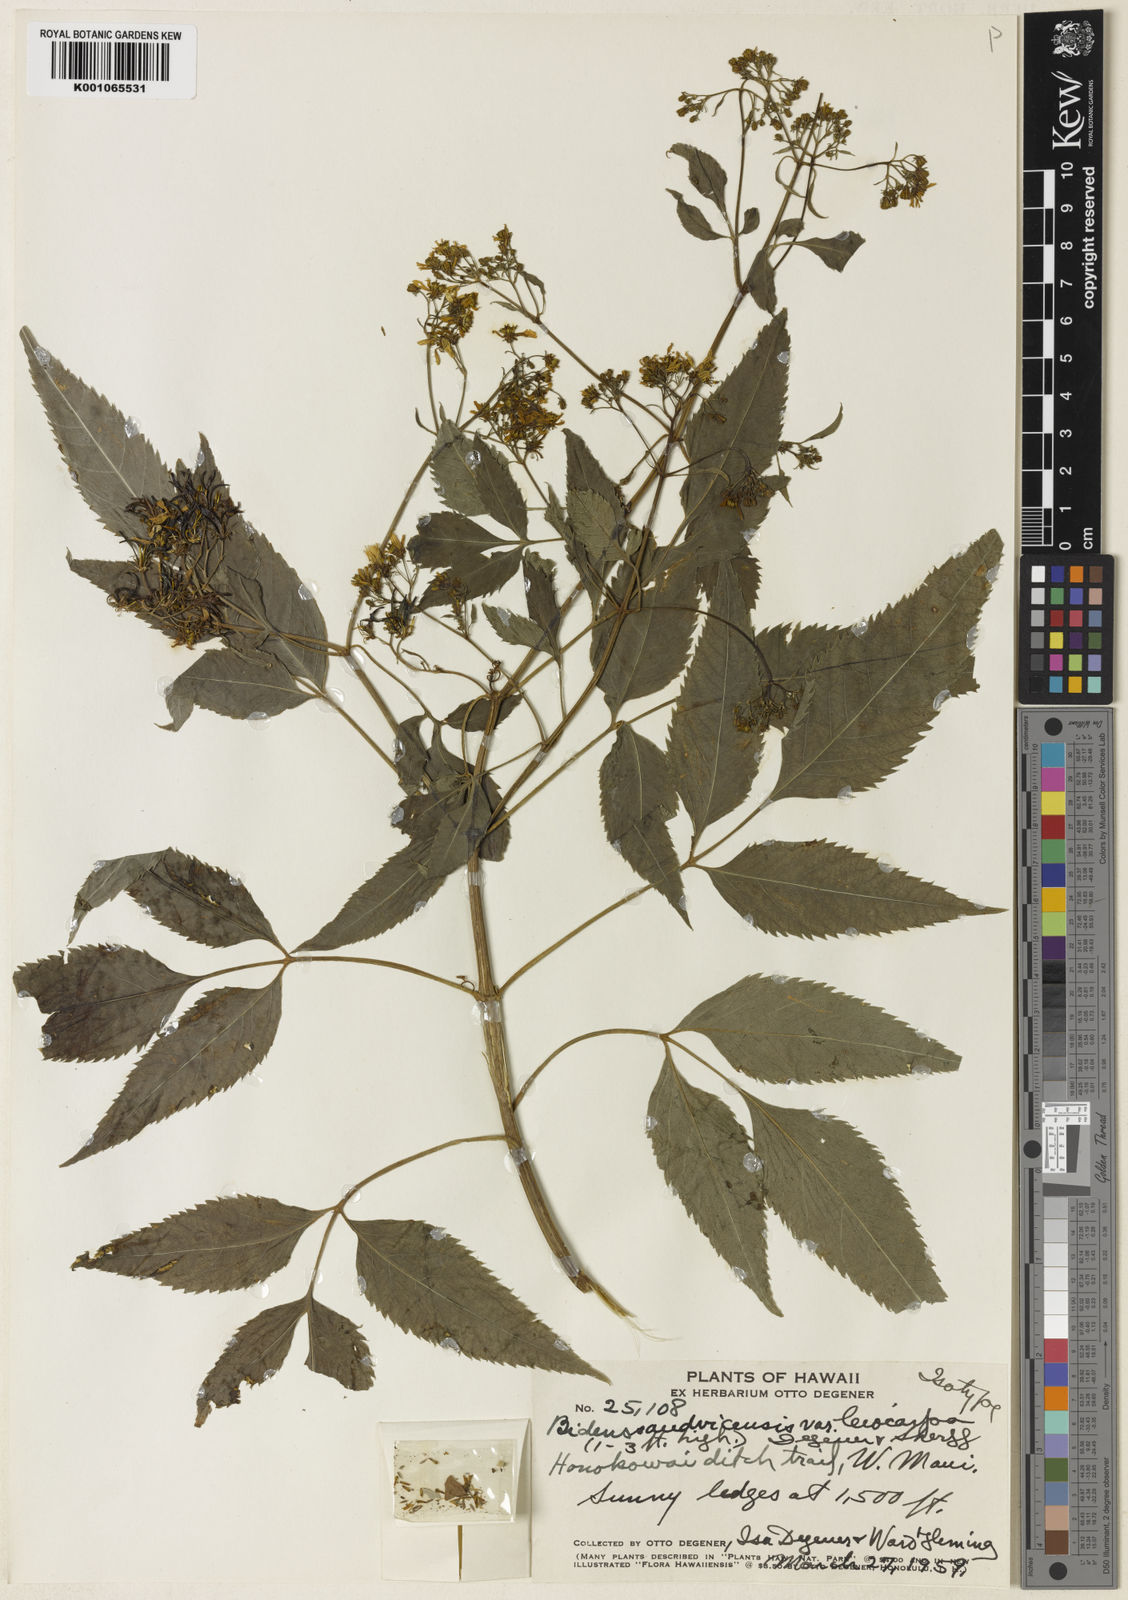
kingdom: Plantae
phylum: Tracheophyta
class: Magnoliopsida
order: Asterales
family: Asteraceae
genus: Bidens
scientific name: Bidens
